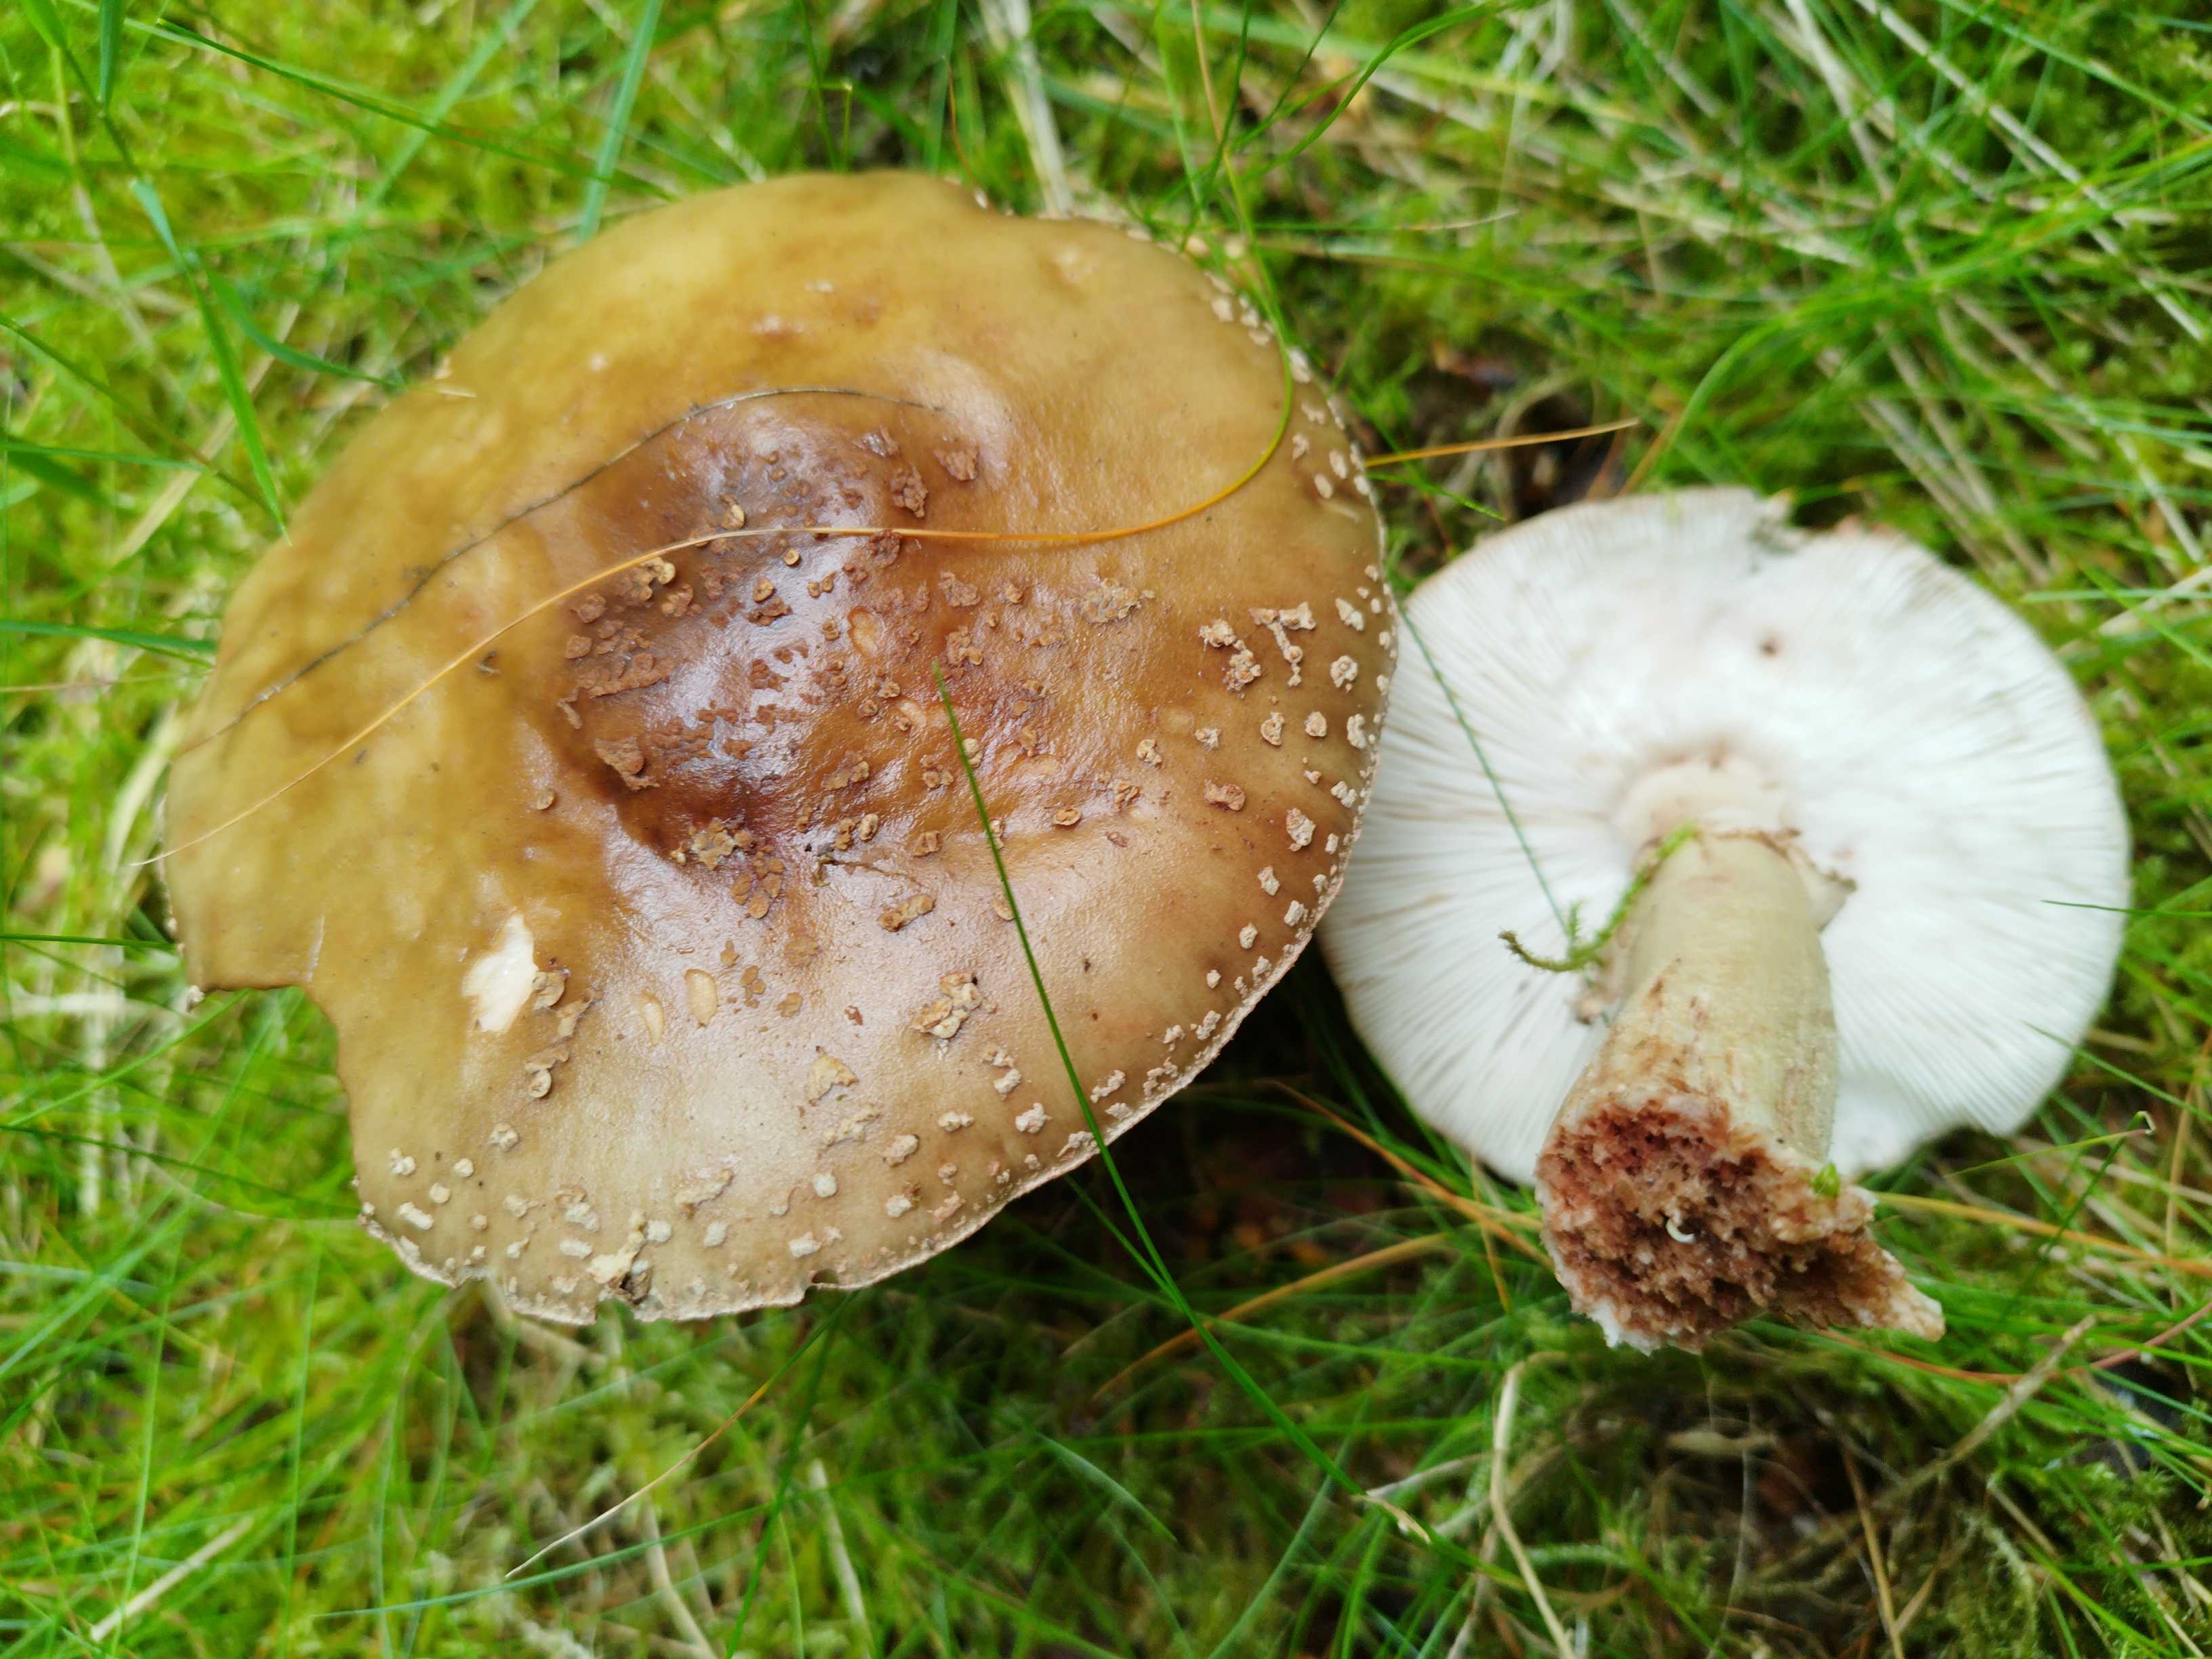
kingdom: Fungi
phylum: Basidiomycota
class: Agaricomycetes
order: Agaricales
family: Amanitaceae
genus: Amanita
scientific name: Amanita rubescens
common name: rødmende fluesvamp
